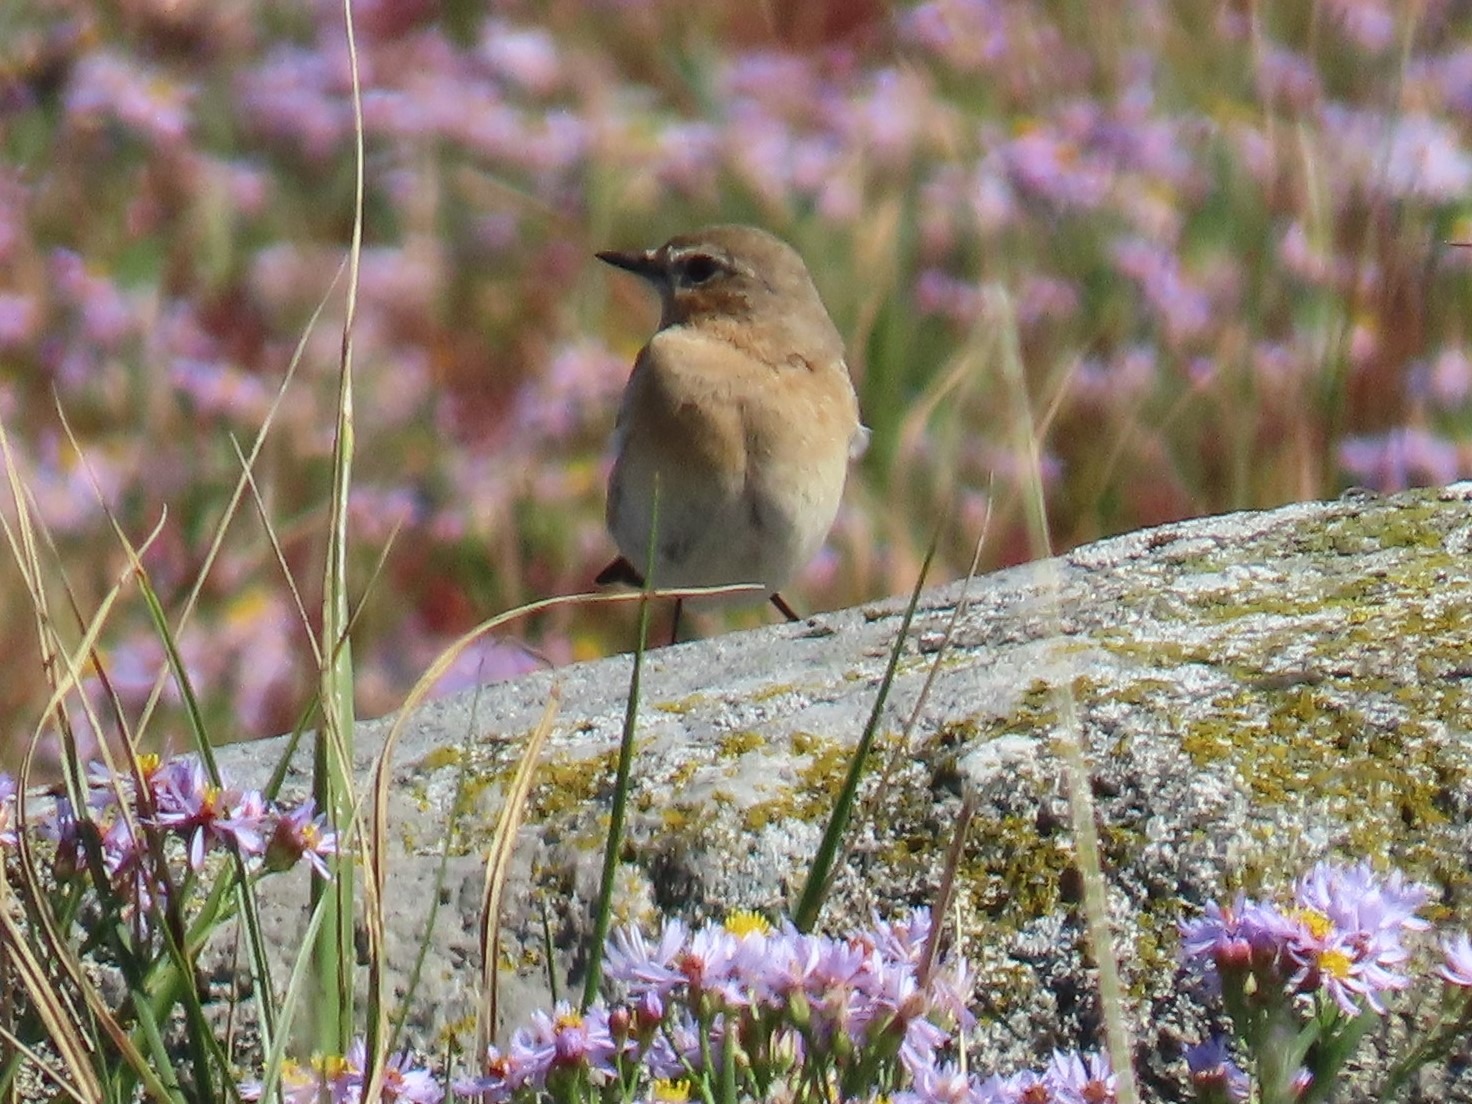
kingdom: Animalia
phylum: Chordata
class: Aves
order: Passeriformes
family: Muscicapidae
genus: Oenanthe
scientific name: Oenanthe oenanthe
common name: Stenpikker
